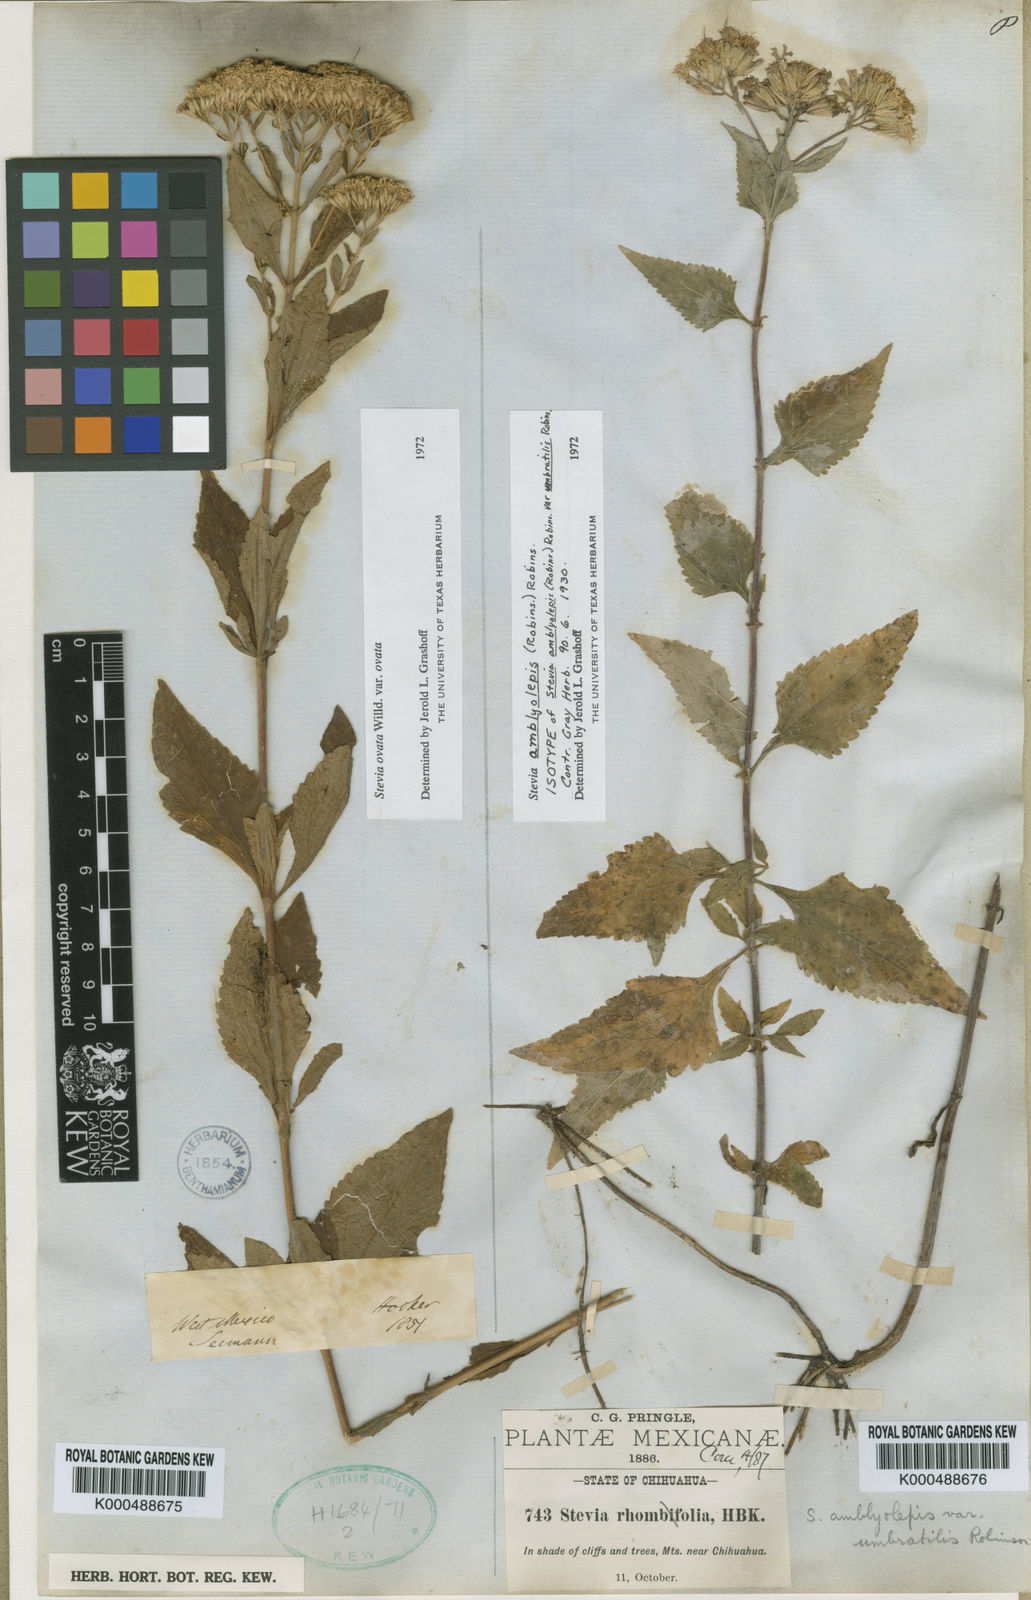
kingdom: Plantae
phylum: Tracheophyta
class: Magnoliopsida
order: Asterales
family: Asteraceae
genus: Stevia
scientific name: Stevia amblyolepis
